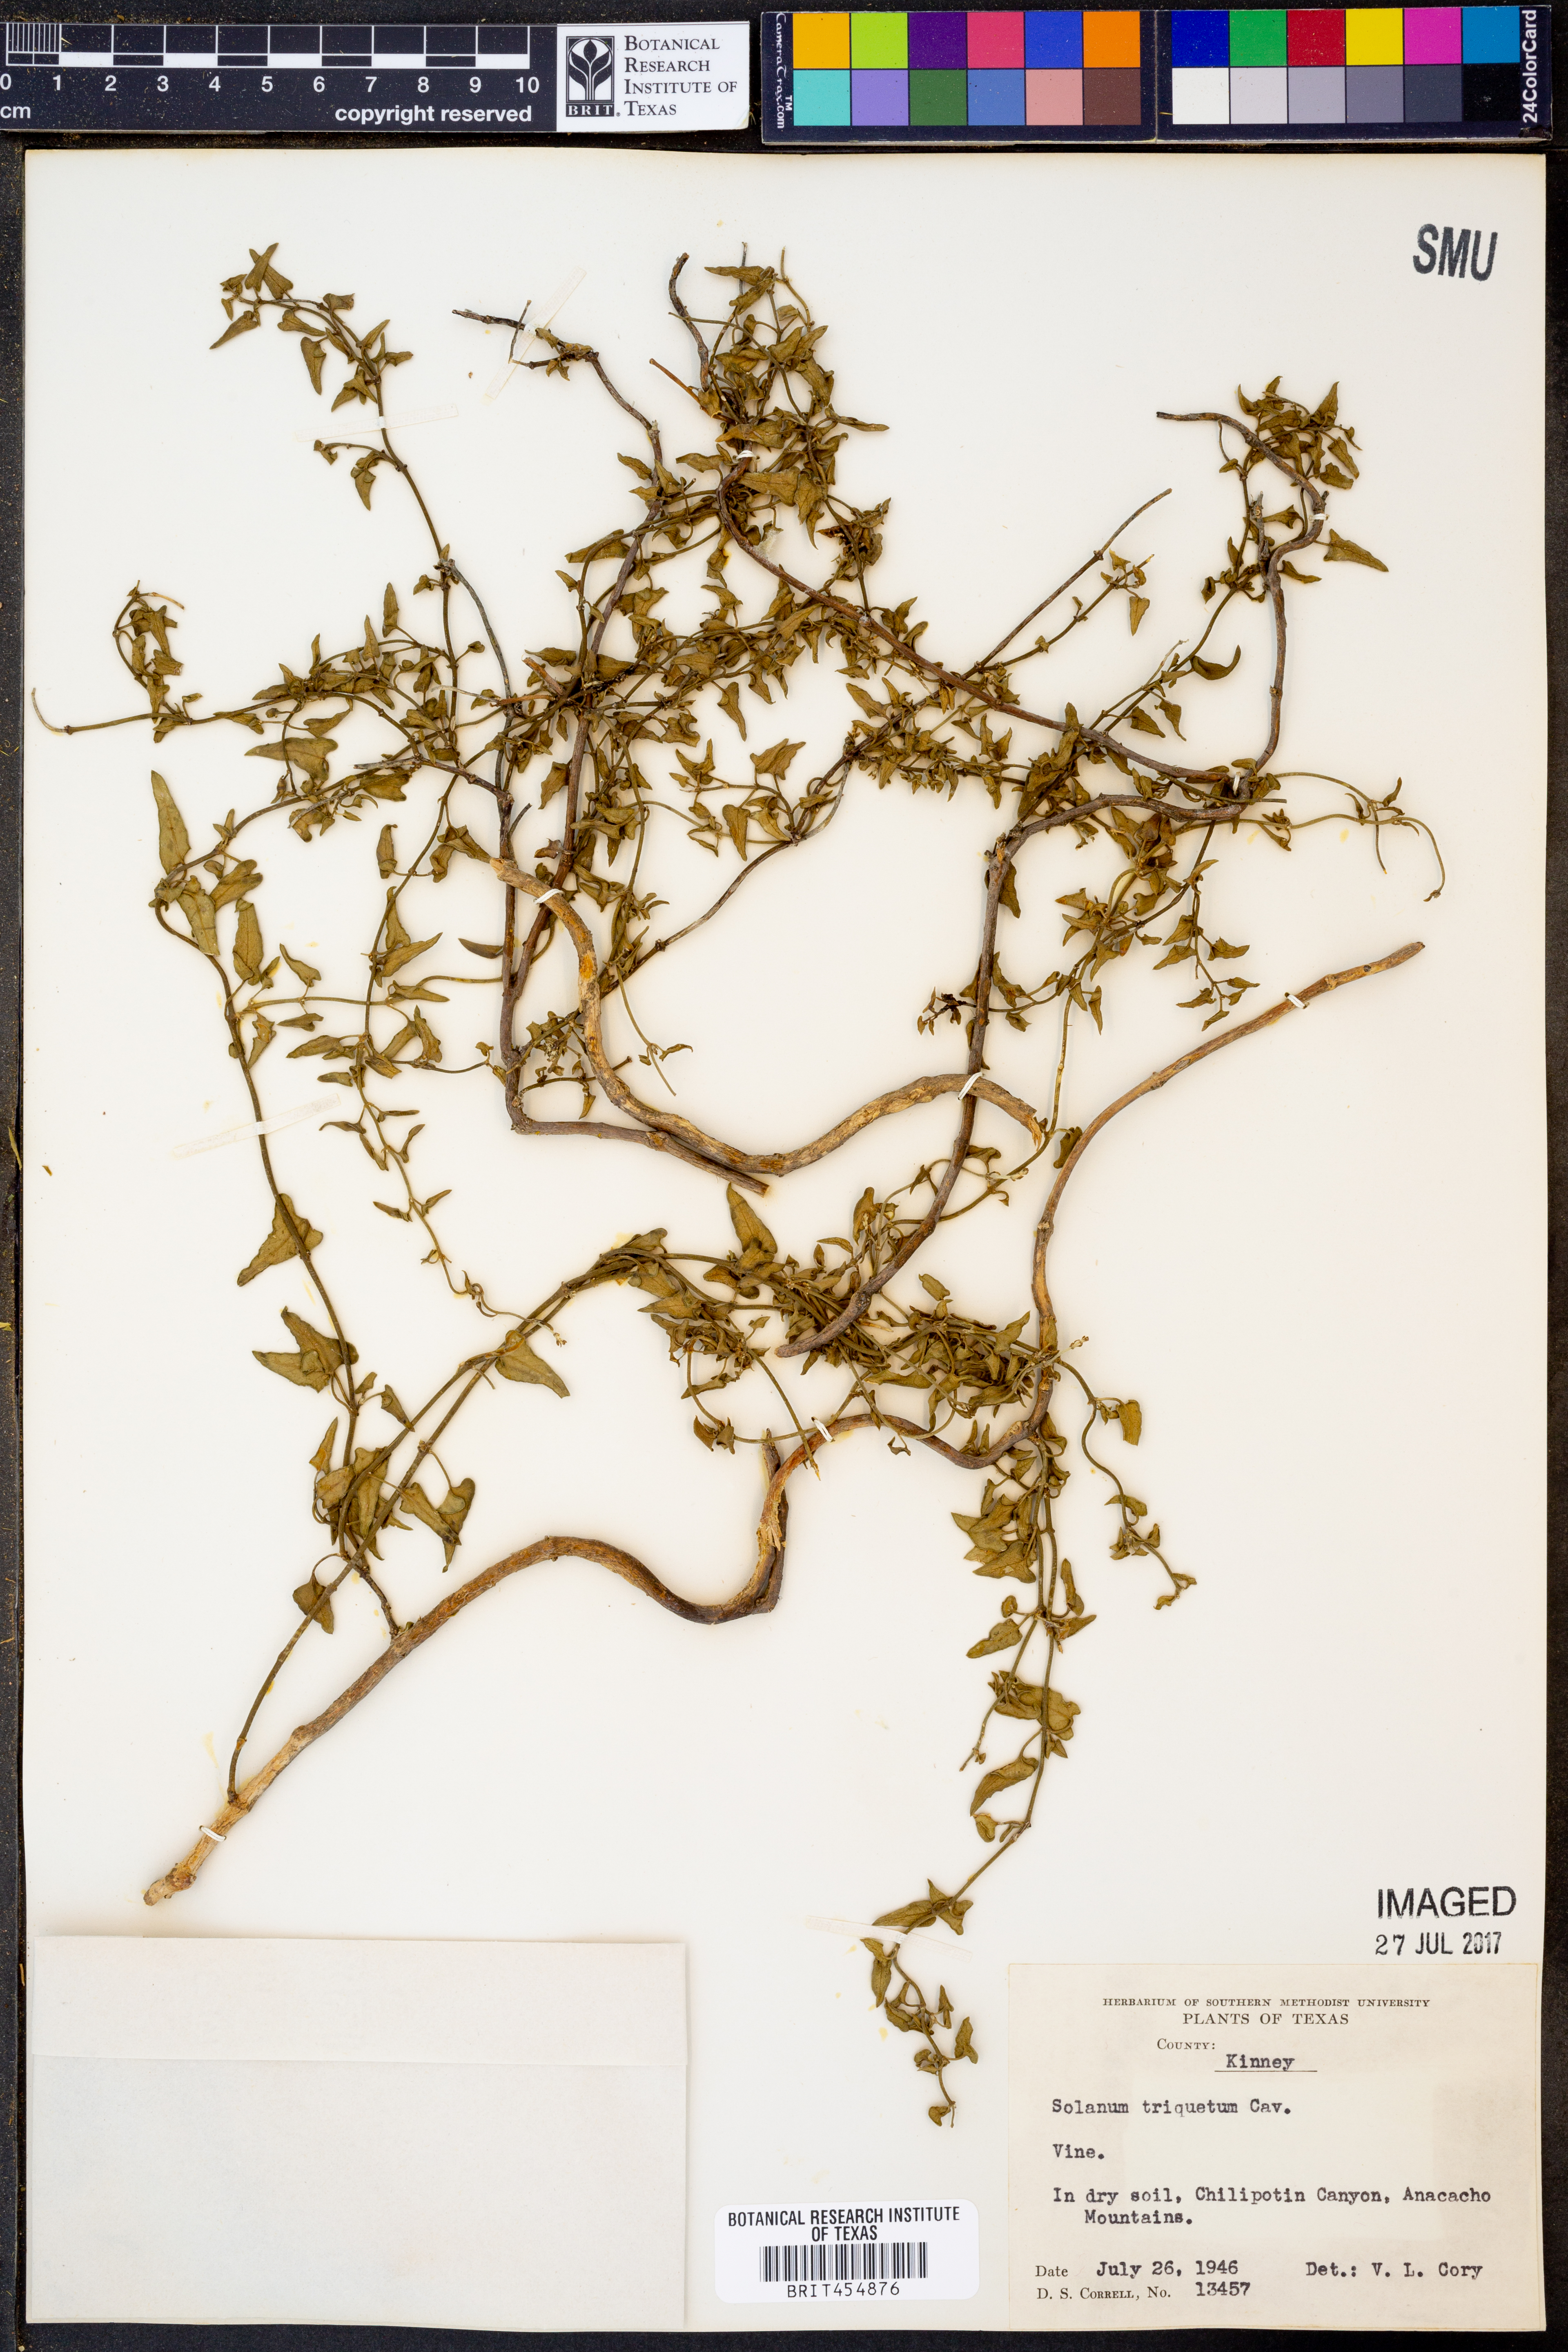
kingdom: Plantae
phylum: Tracheophyta
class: Magnoliopsida
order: Solanales
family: Solanaceae
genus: Solanum
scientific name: Solanum triquetrum
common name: Texas nightshade
